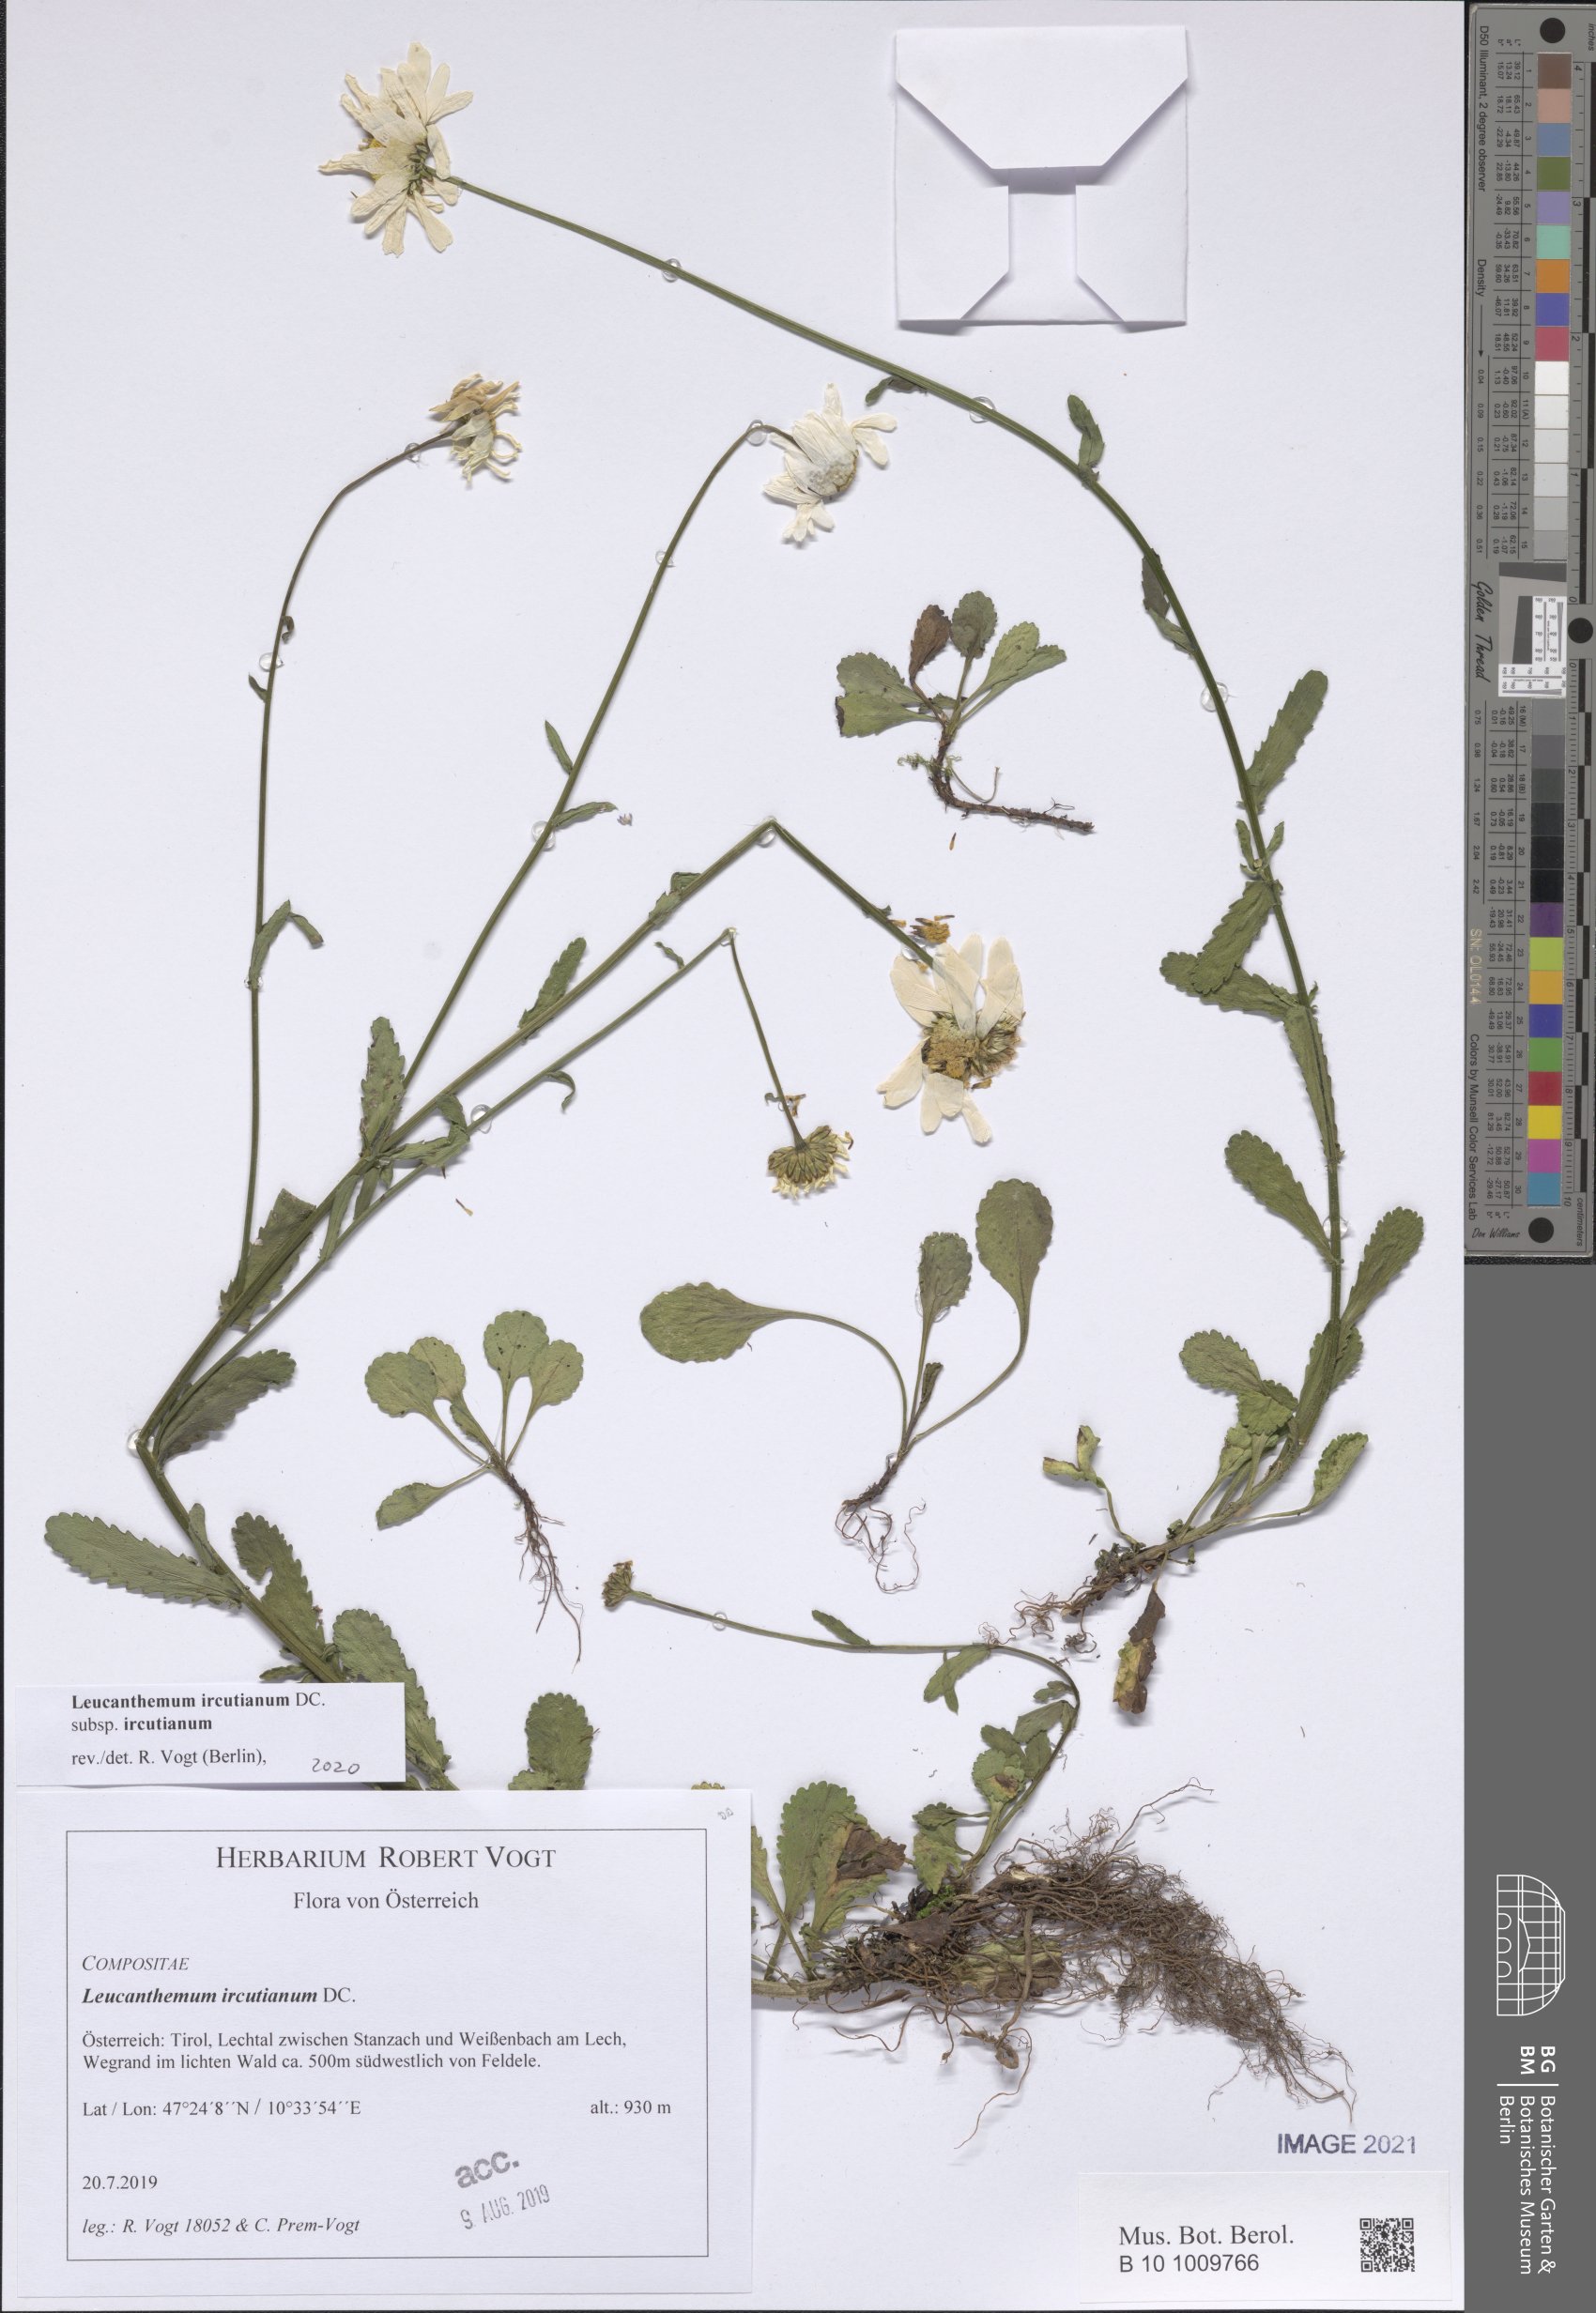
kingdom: Plantae
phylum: Tracheophyta
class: Magnoliopsida
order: Asterales
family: Asteraceae
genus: Leucanthemum
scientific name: Leucanthemum ircutianum
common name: Daisy
